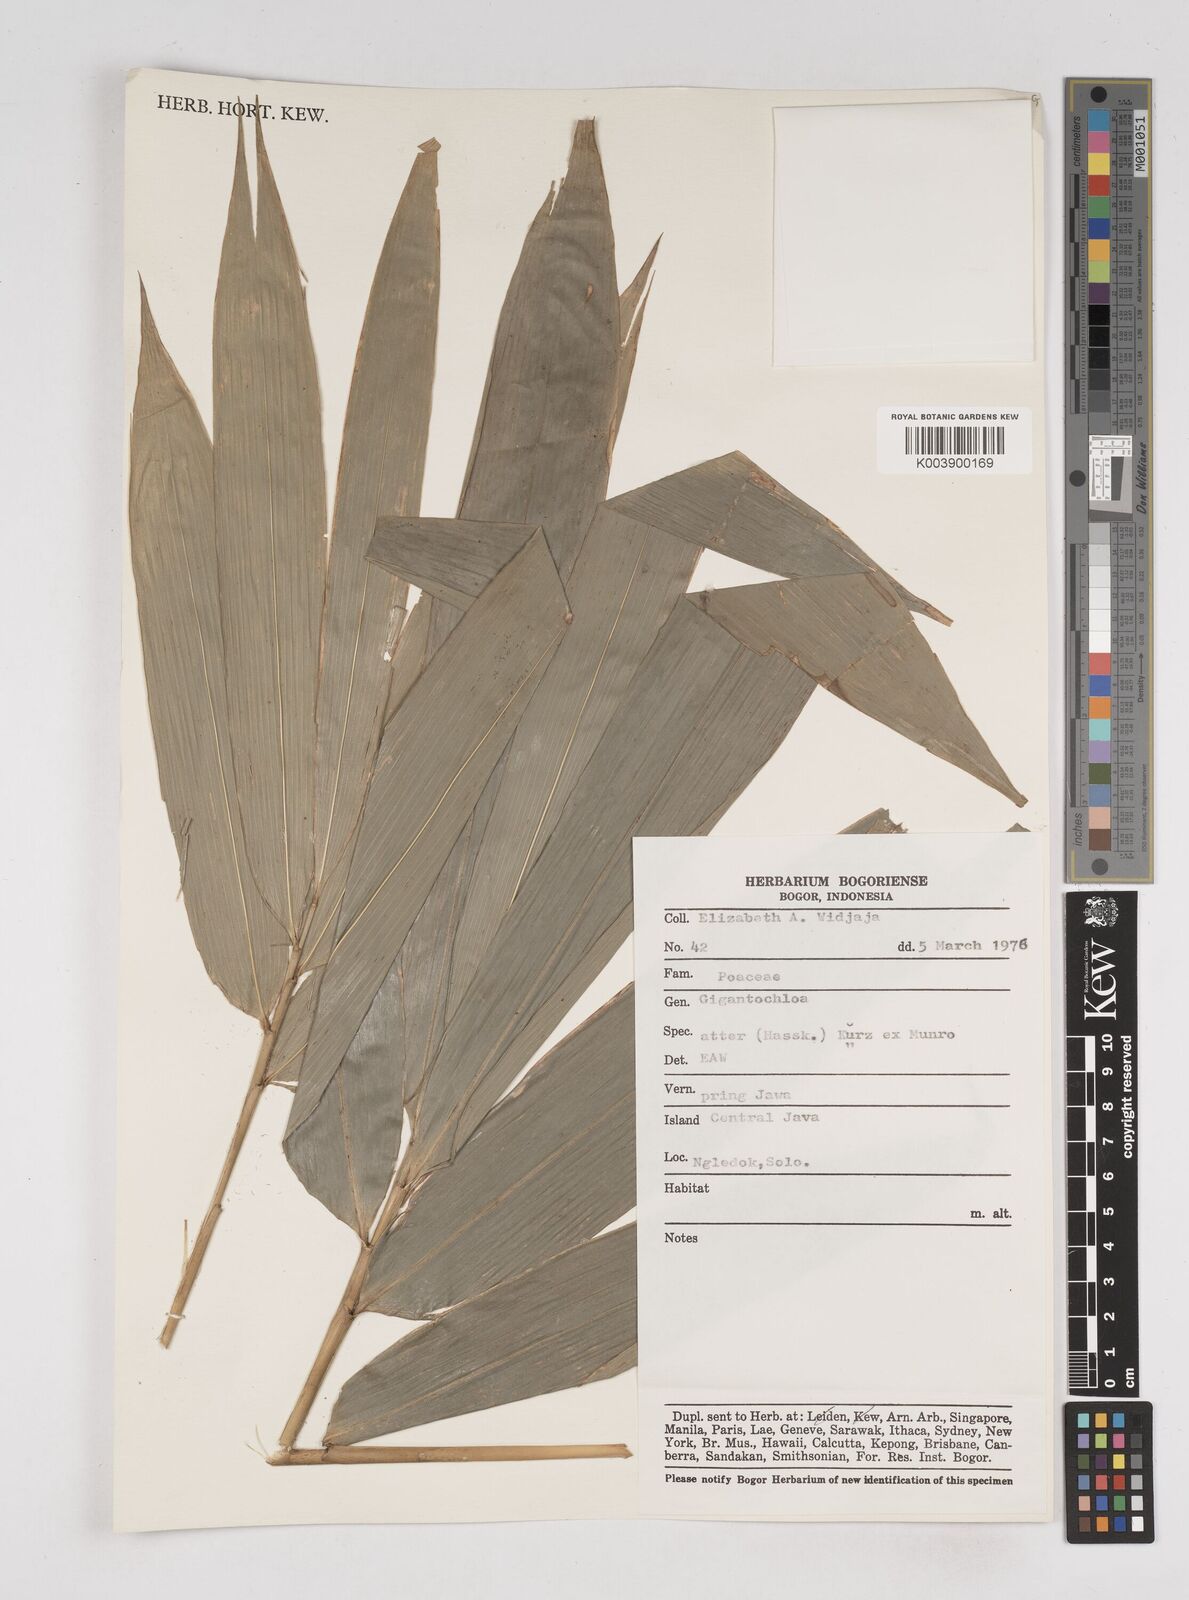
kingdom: Plantae
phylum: Tracheophyta
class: Liliopsida
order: Poales
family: Poaceae
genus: Gigantochloa
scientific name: Gigantochloa atter
